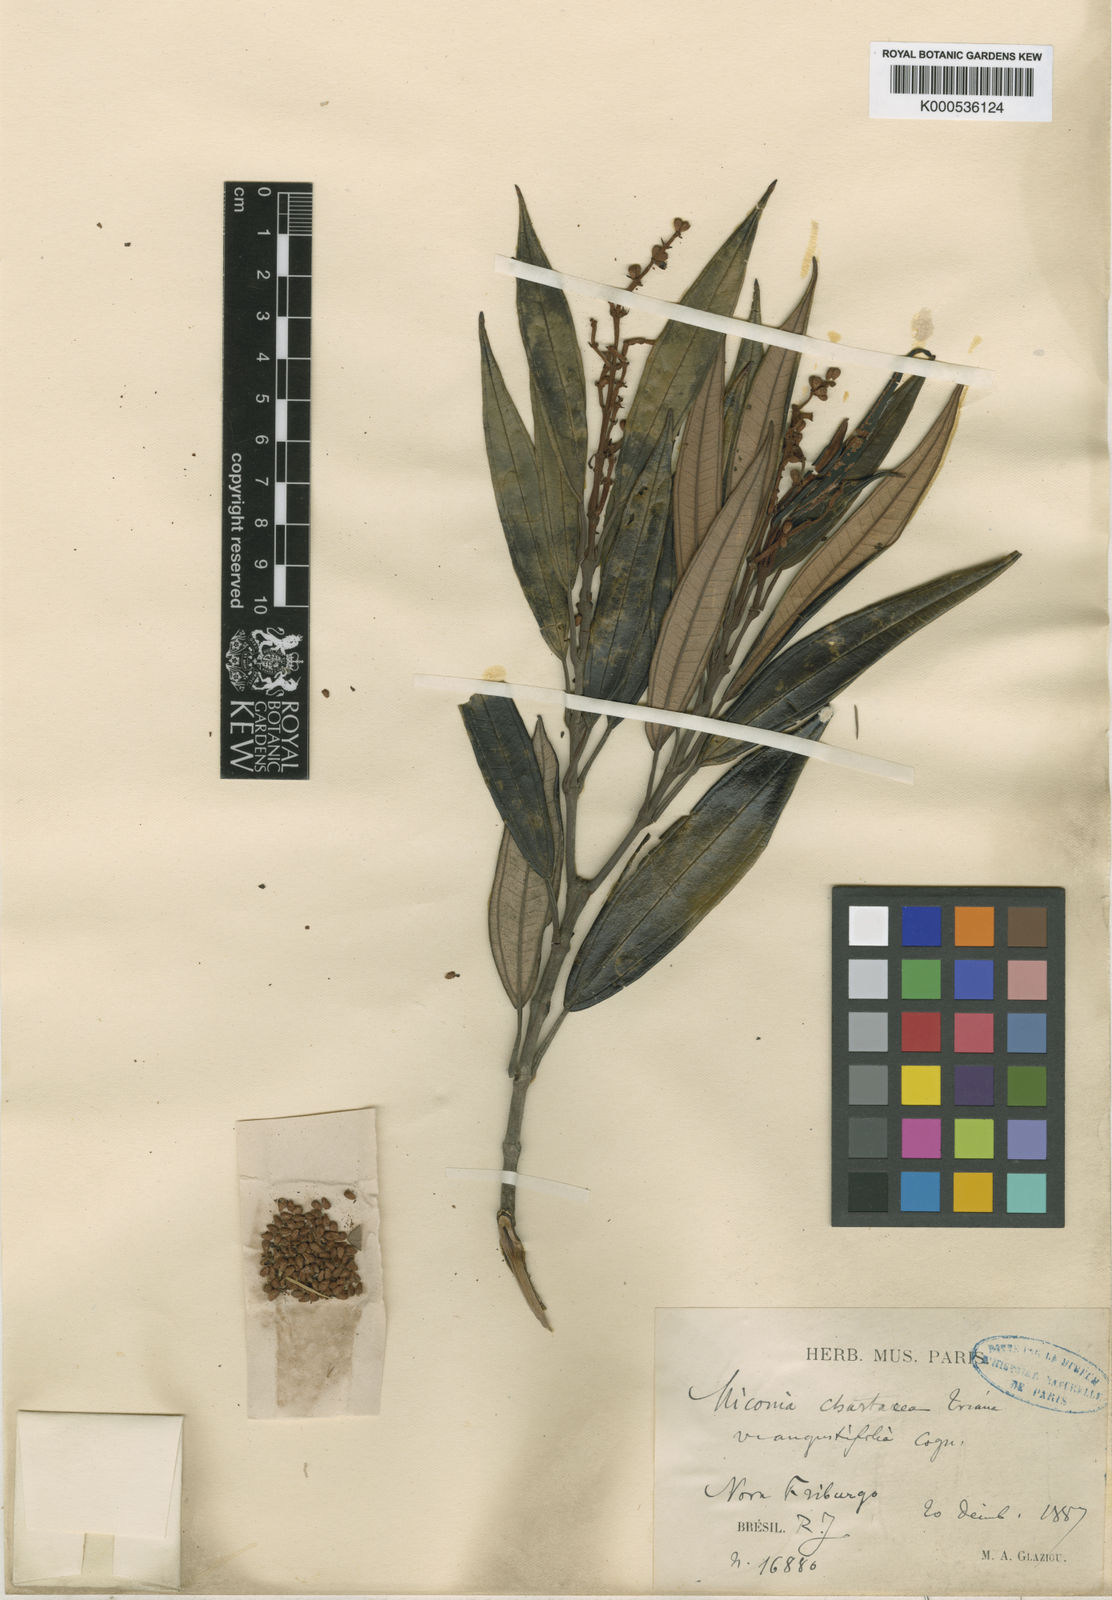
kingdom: Plantae
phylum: Tracheophyta
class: Magnoliopsida
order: Myrtales
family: Melastomataceae
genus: Miconia
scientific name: Miconia chartacea
